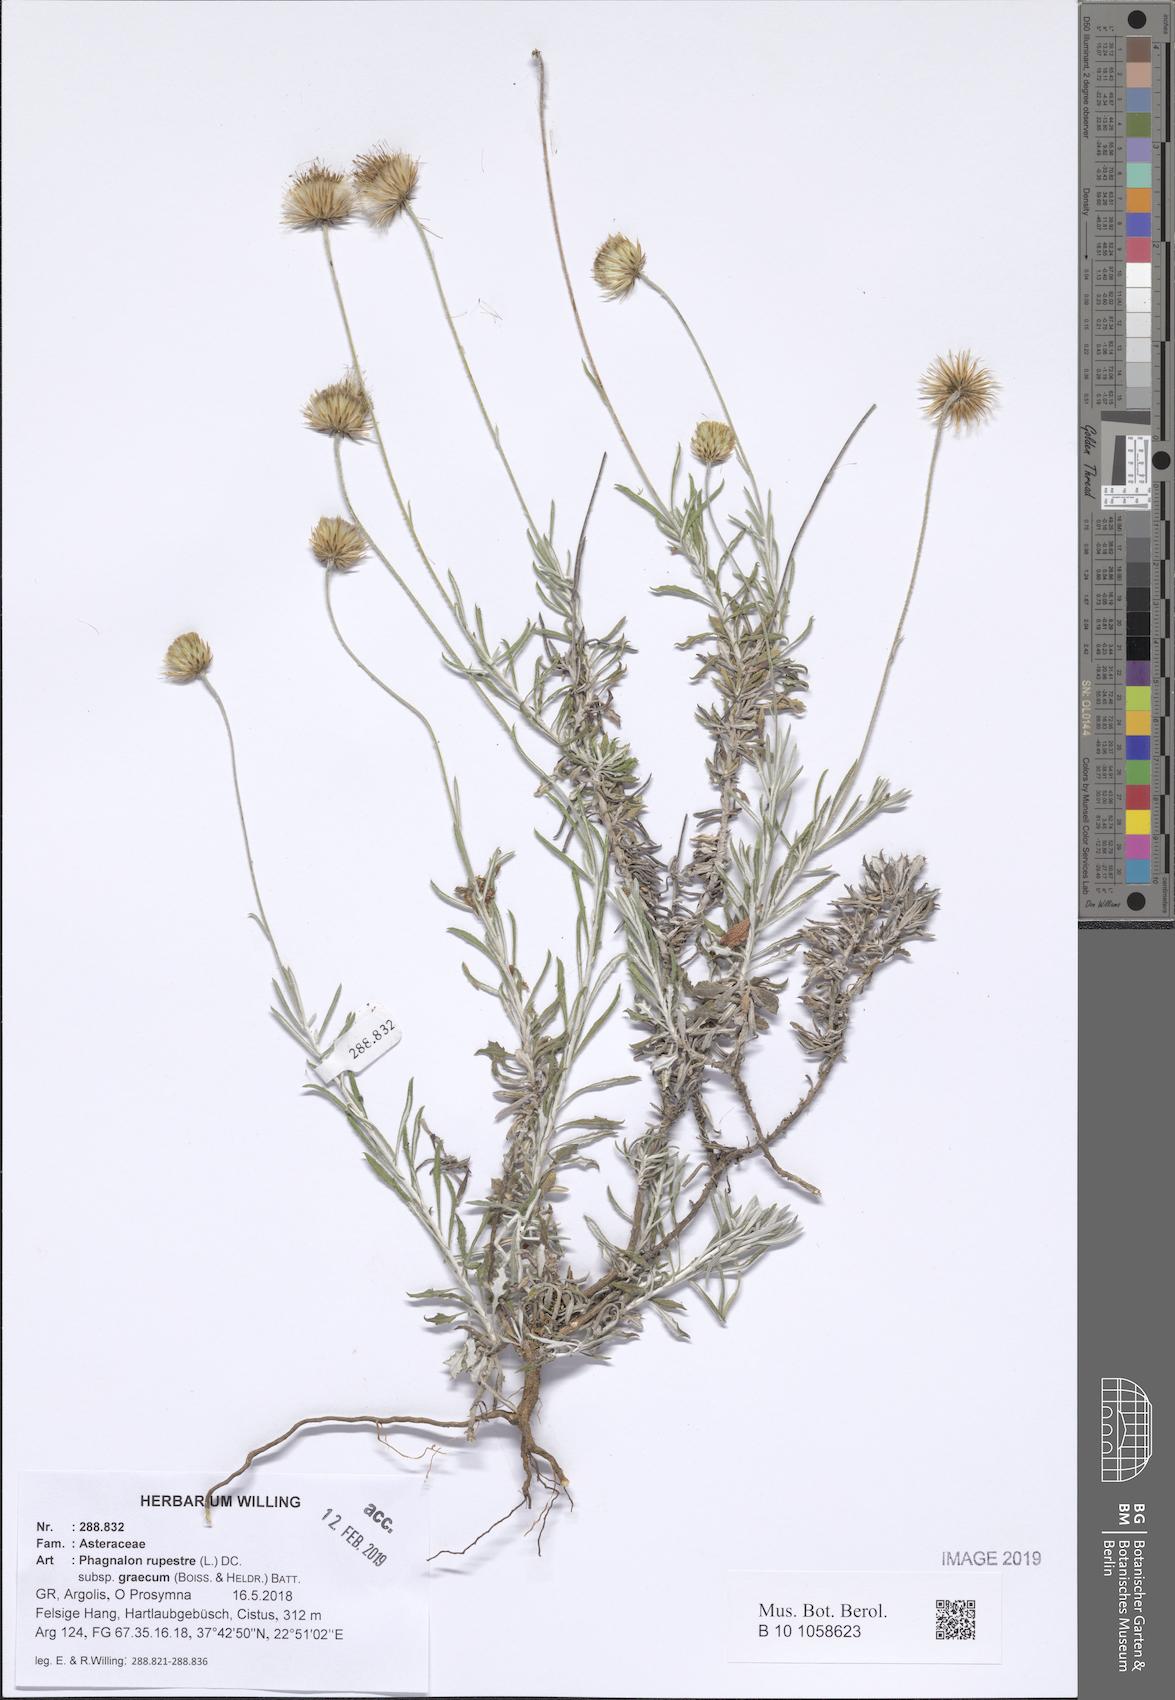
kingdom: Plantae
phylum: Tracheophyta
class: Magnoliopsida
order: Asterales
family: Asteraceae
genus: Phagnalon
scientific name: Phagnalon graecum
